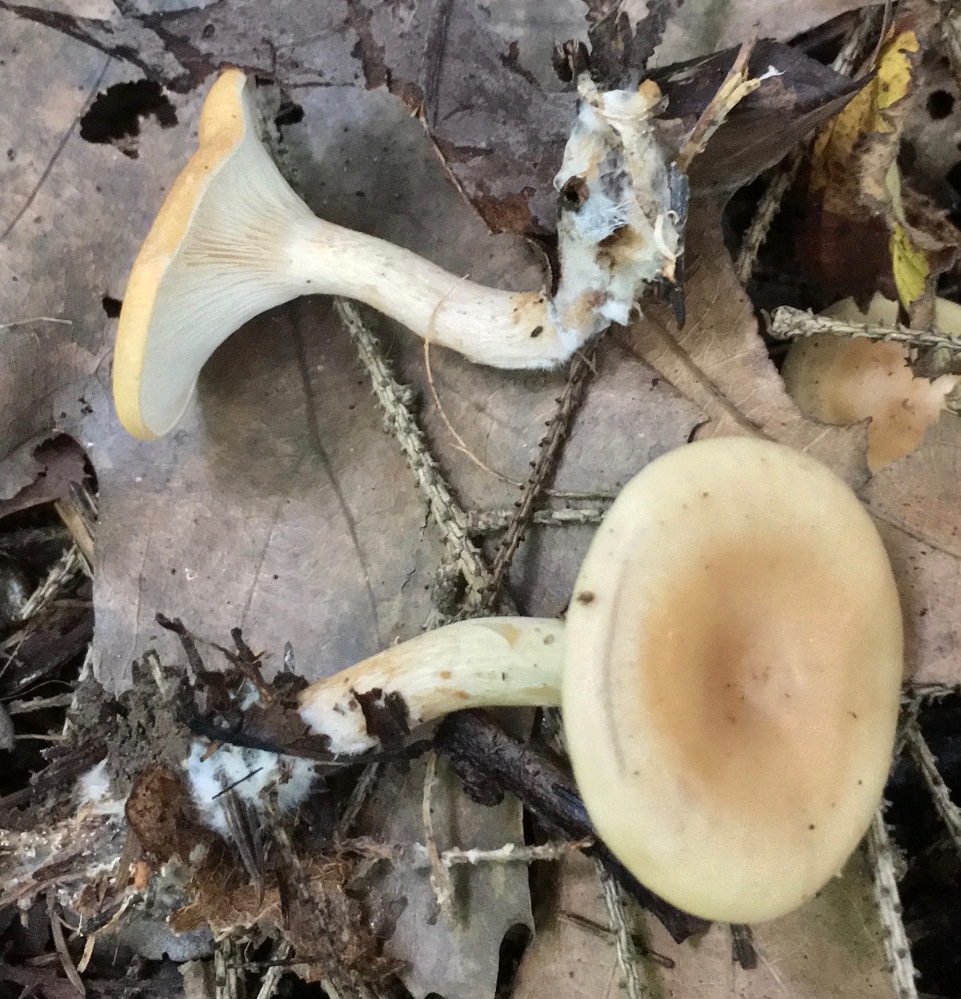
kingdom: Fungi
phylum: Basidiomycota
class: Agaricomycetes
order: Agaricales
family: Tricholomataceae
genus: Paralepista
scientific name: Paralepista gilva
